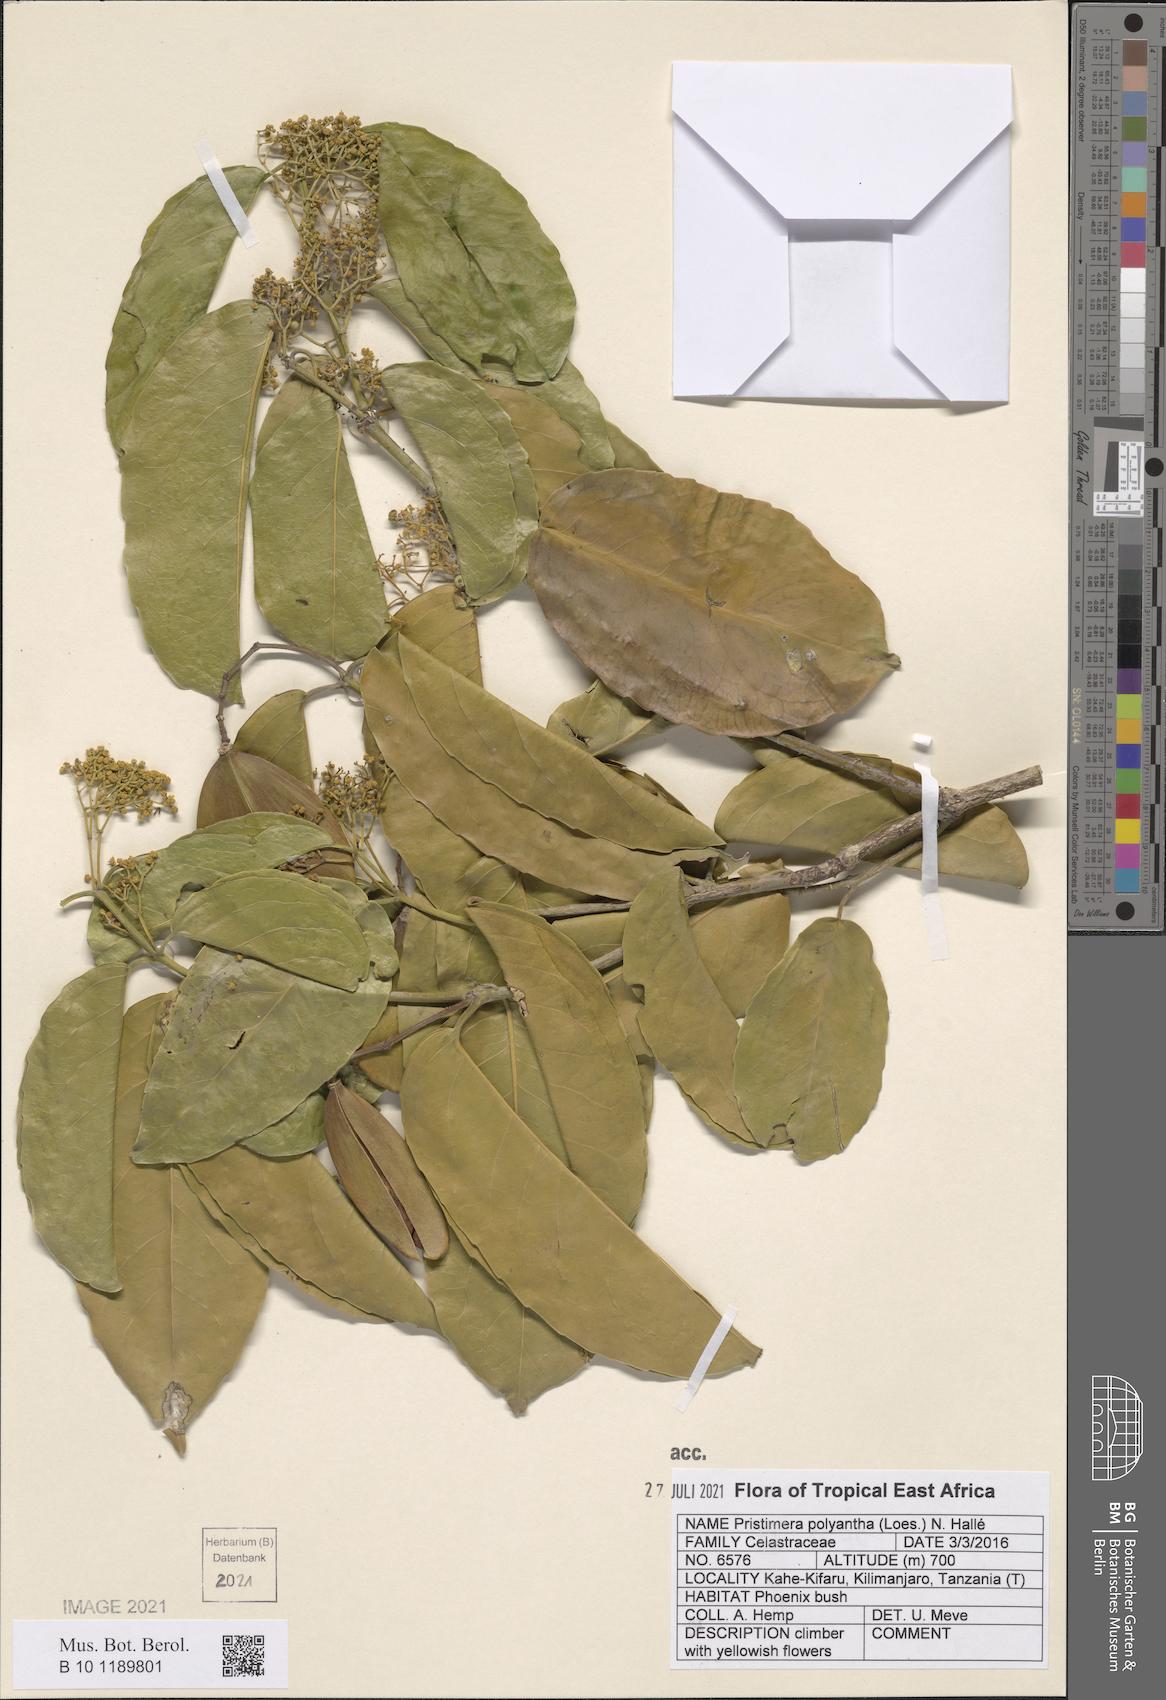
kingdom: Plantae
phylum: Tracheophyta
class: Magnoliopsida
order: Celastrales
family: Celastraceae
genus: Pristimera
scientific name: Pristimera paniculata
